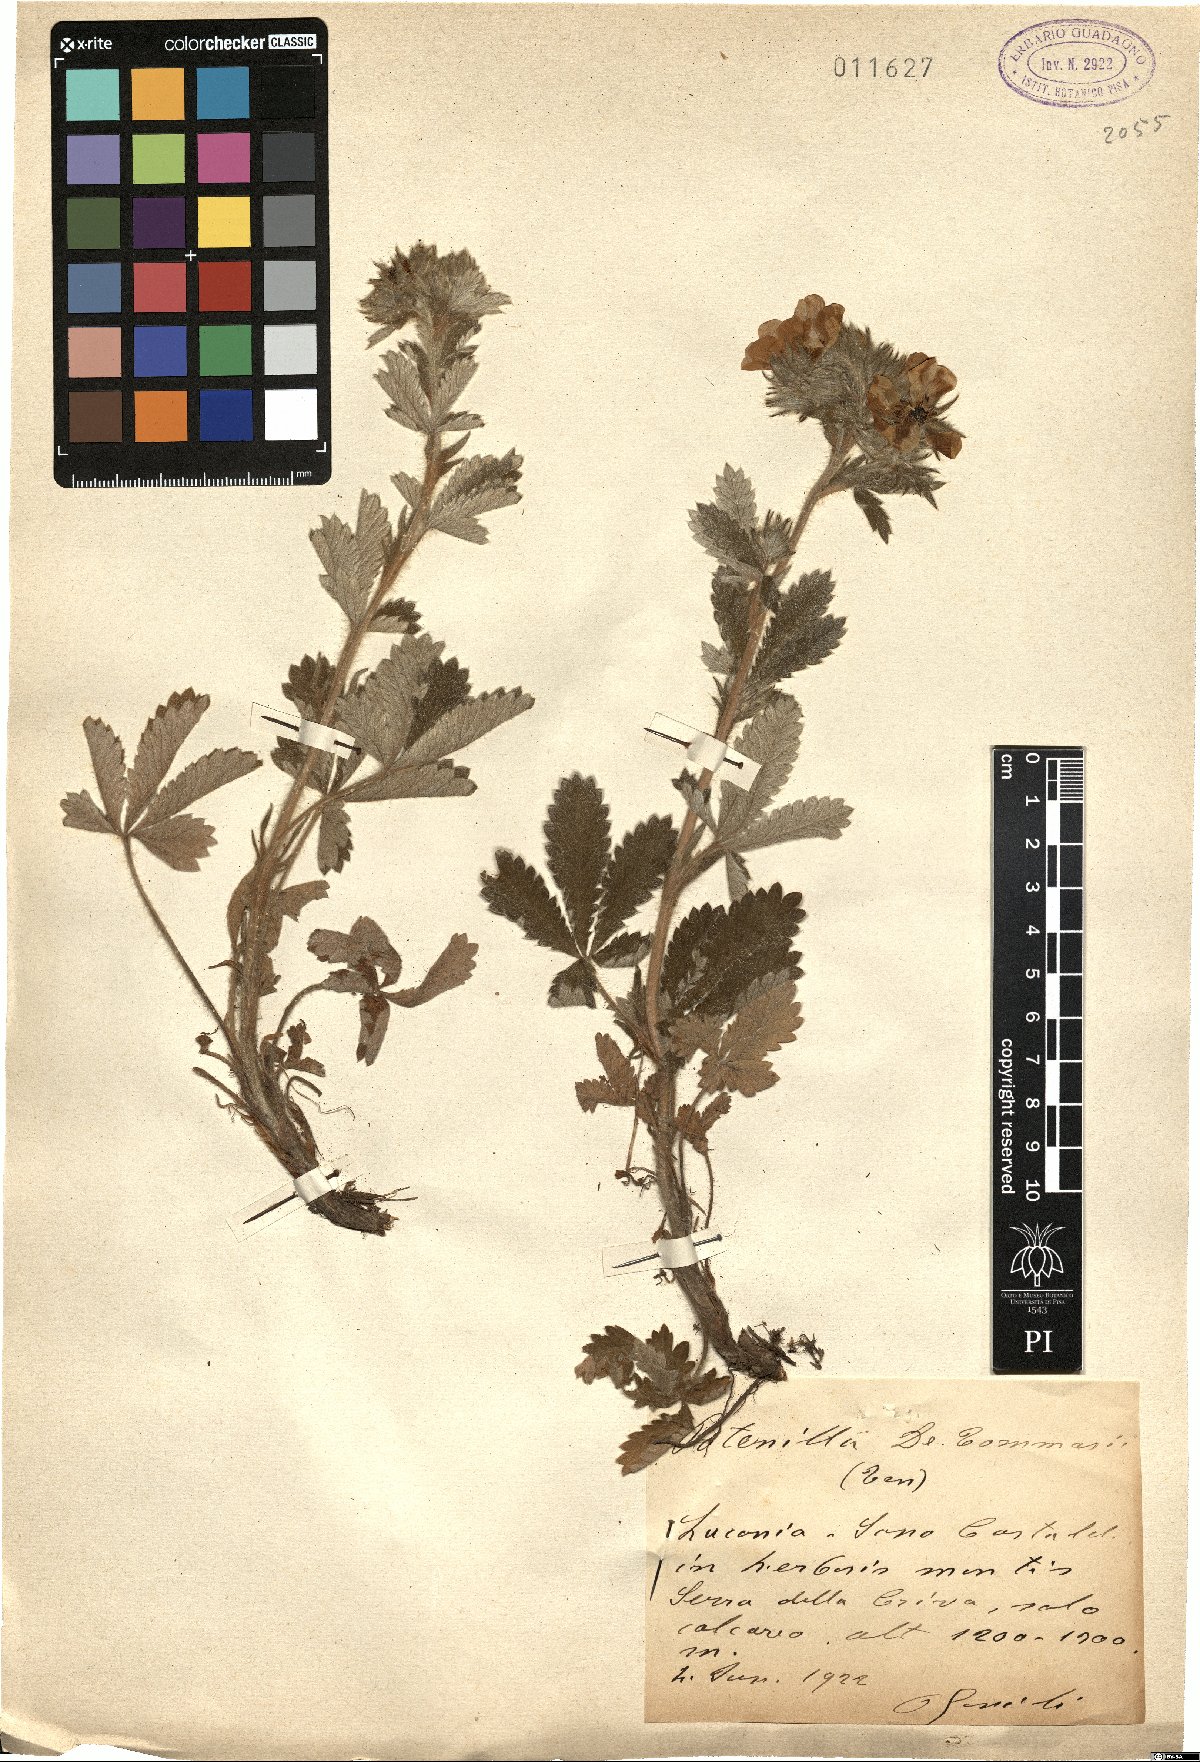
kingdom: Plantae
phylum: Tracheophyta
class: Magnoliopsida
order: Rosales
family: Rosaceae
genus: Potentilla
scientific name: Potentilla detommasii
